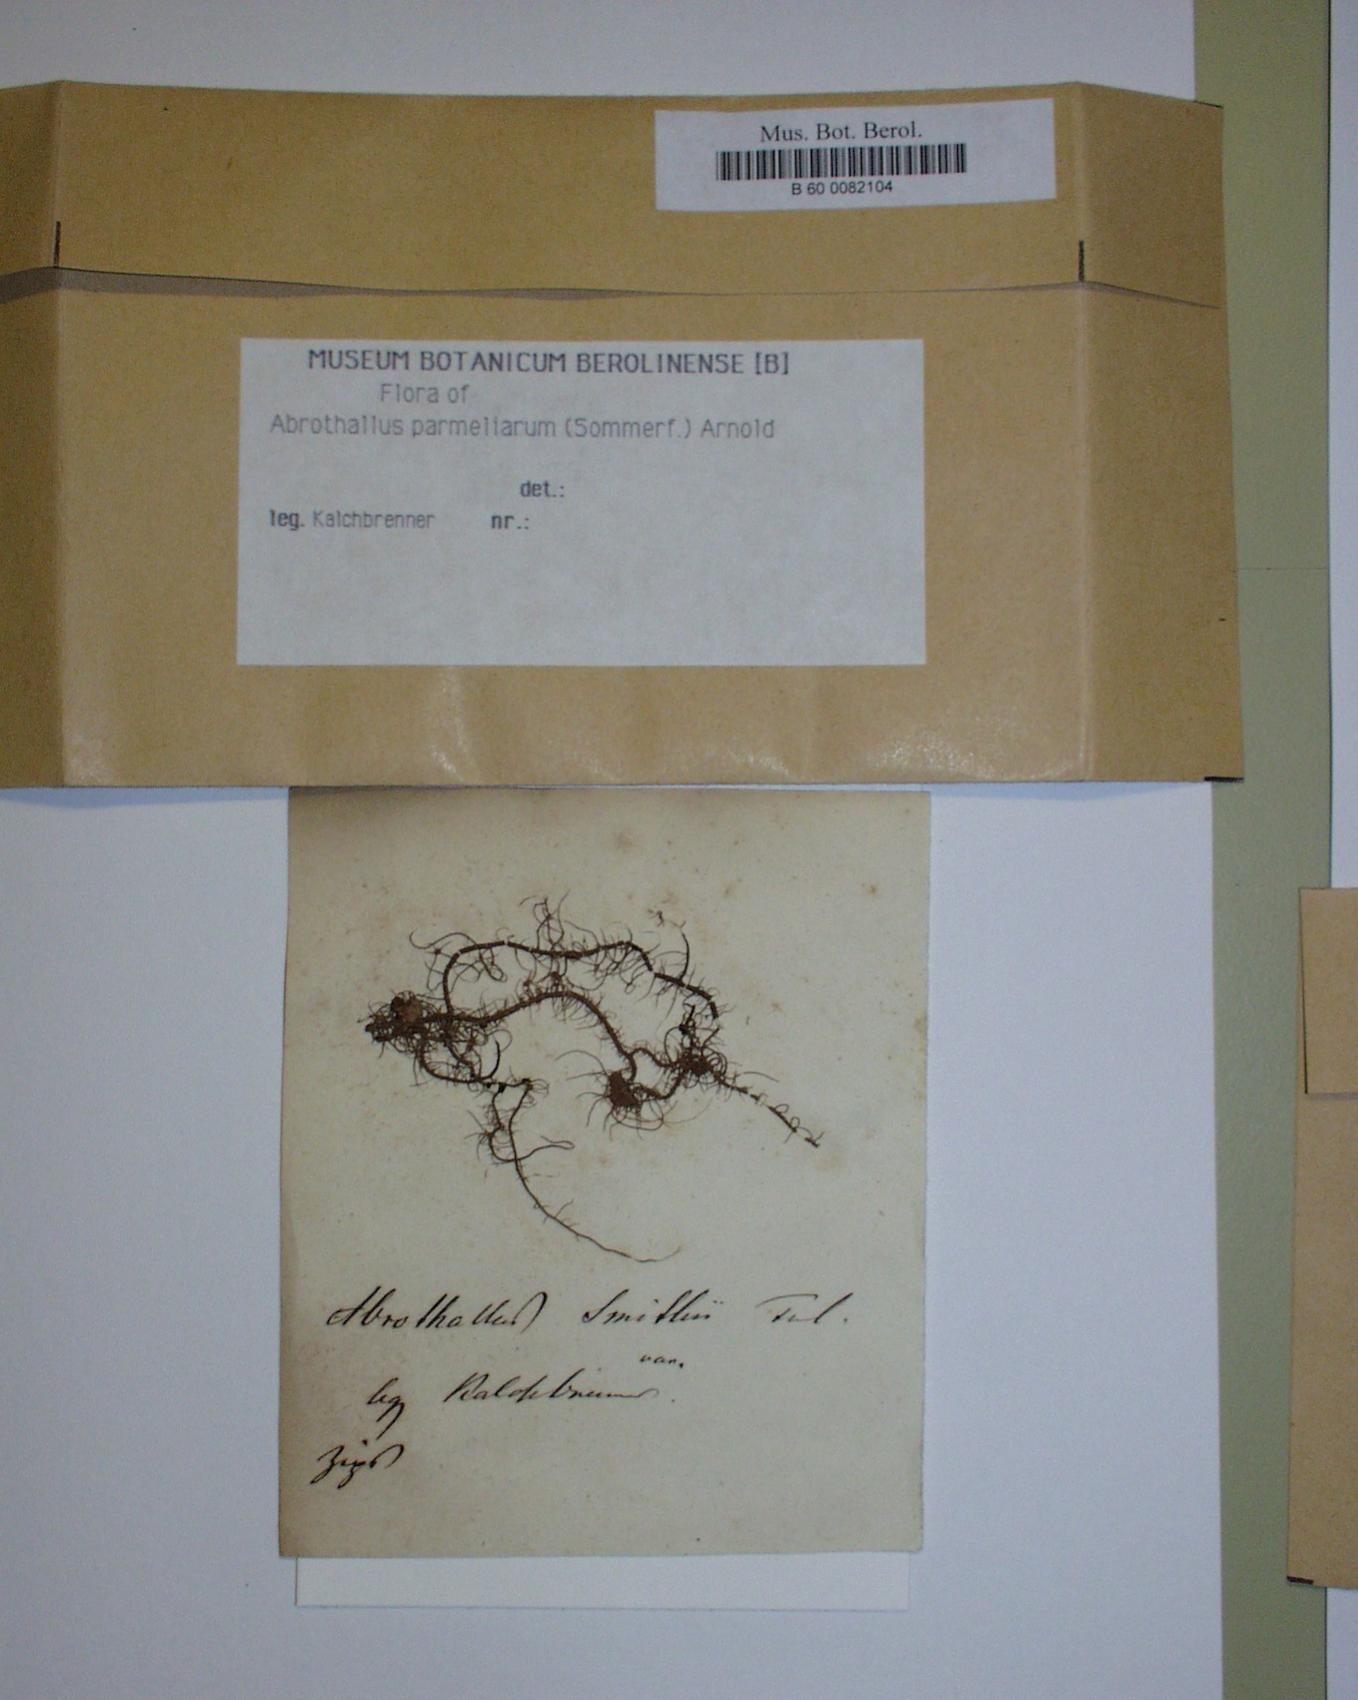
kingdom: Fungi
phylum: Ascomycota
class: Dothideomycetes
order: Abrothallales
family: Abrothallaceae
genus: Abrothallus
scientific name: Abrothallus parmeliarum
